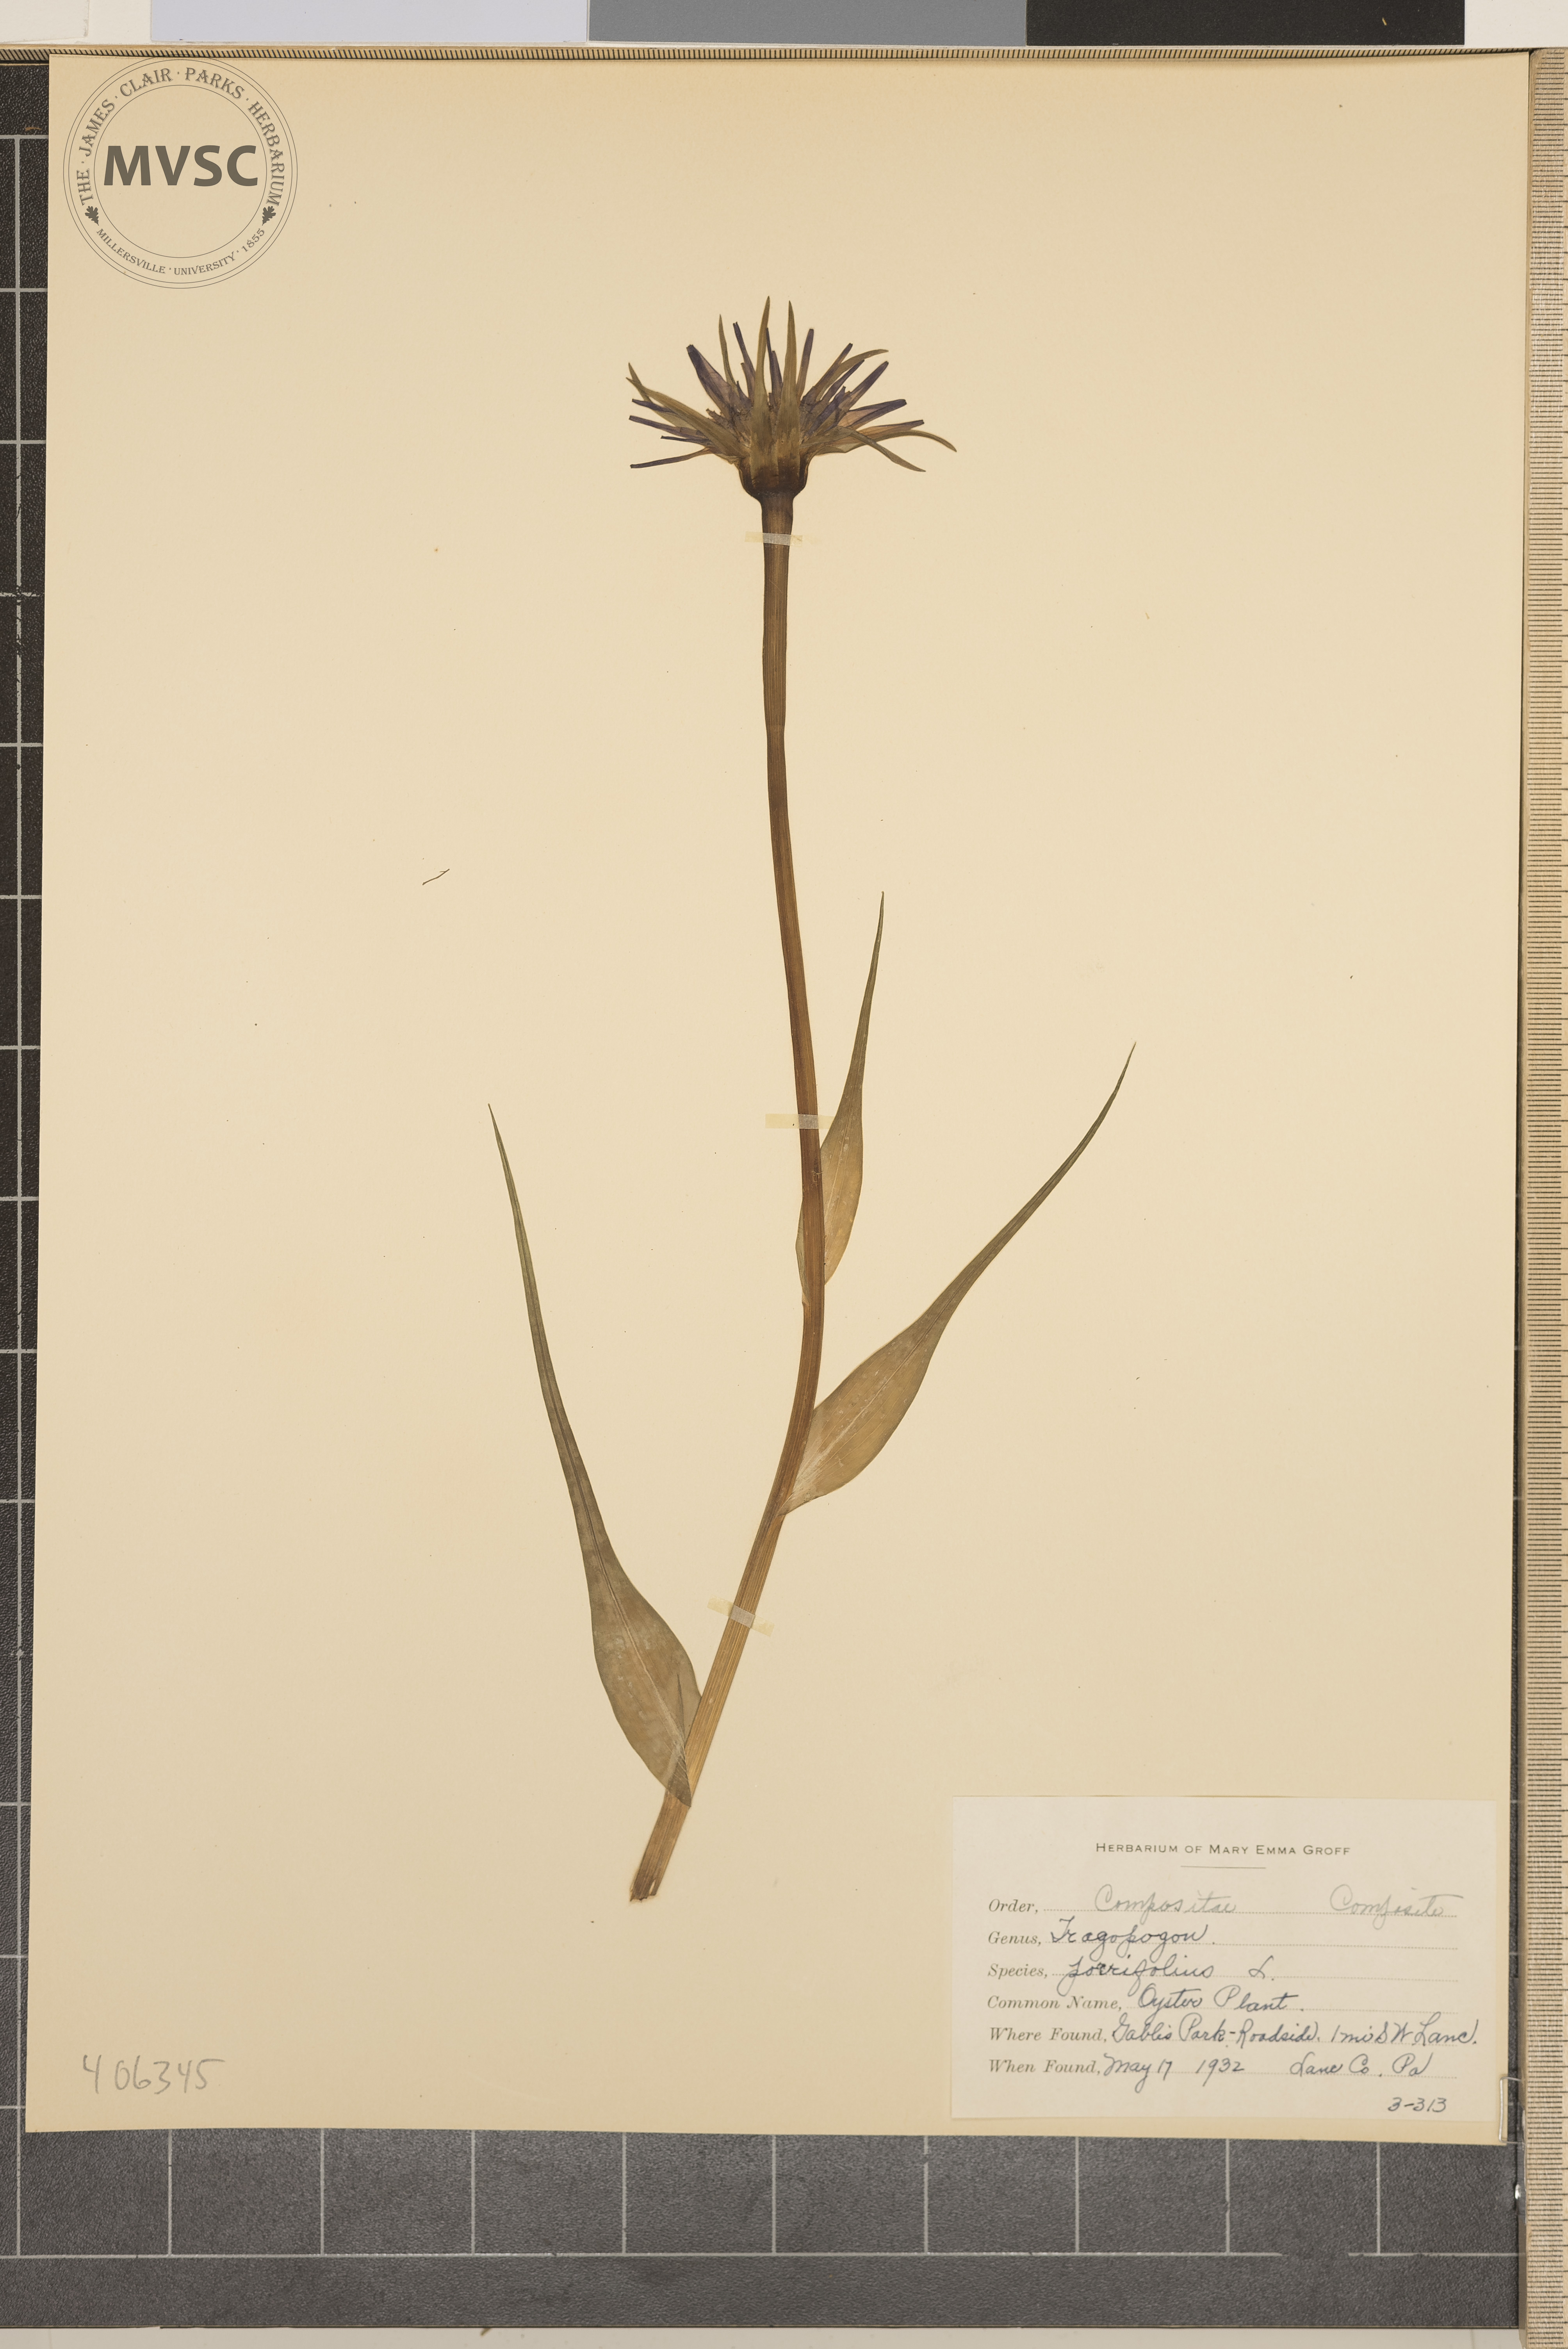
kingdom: Plantae
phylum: Tracheophyta
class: Magnoliopsida
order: Asterales
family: Asteraceae
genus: Tragopogon
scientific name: Tragopogon porrifolius
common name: Oyster Plant
